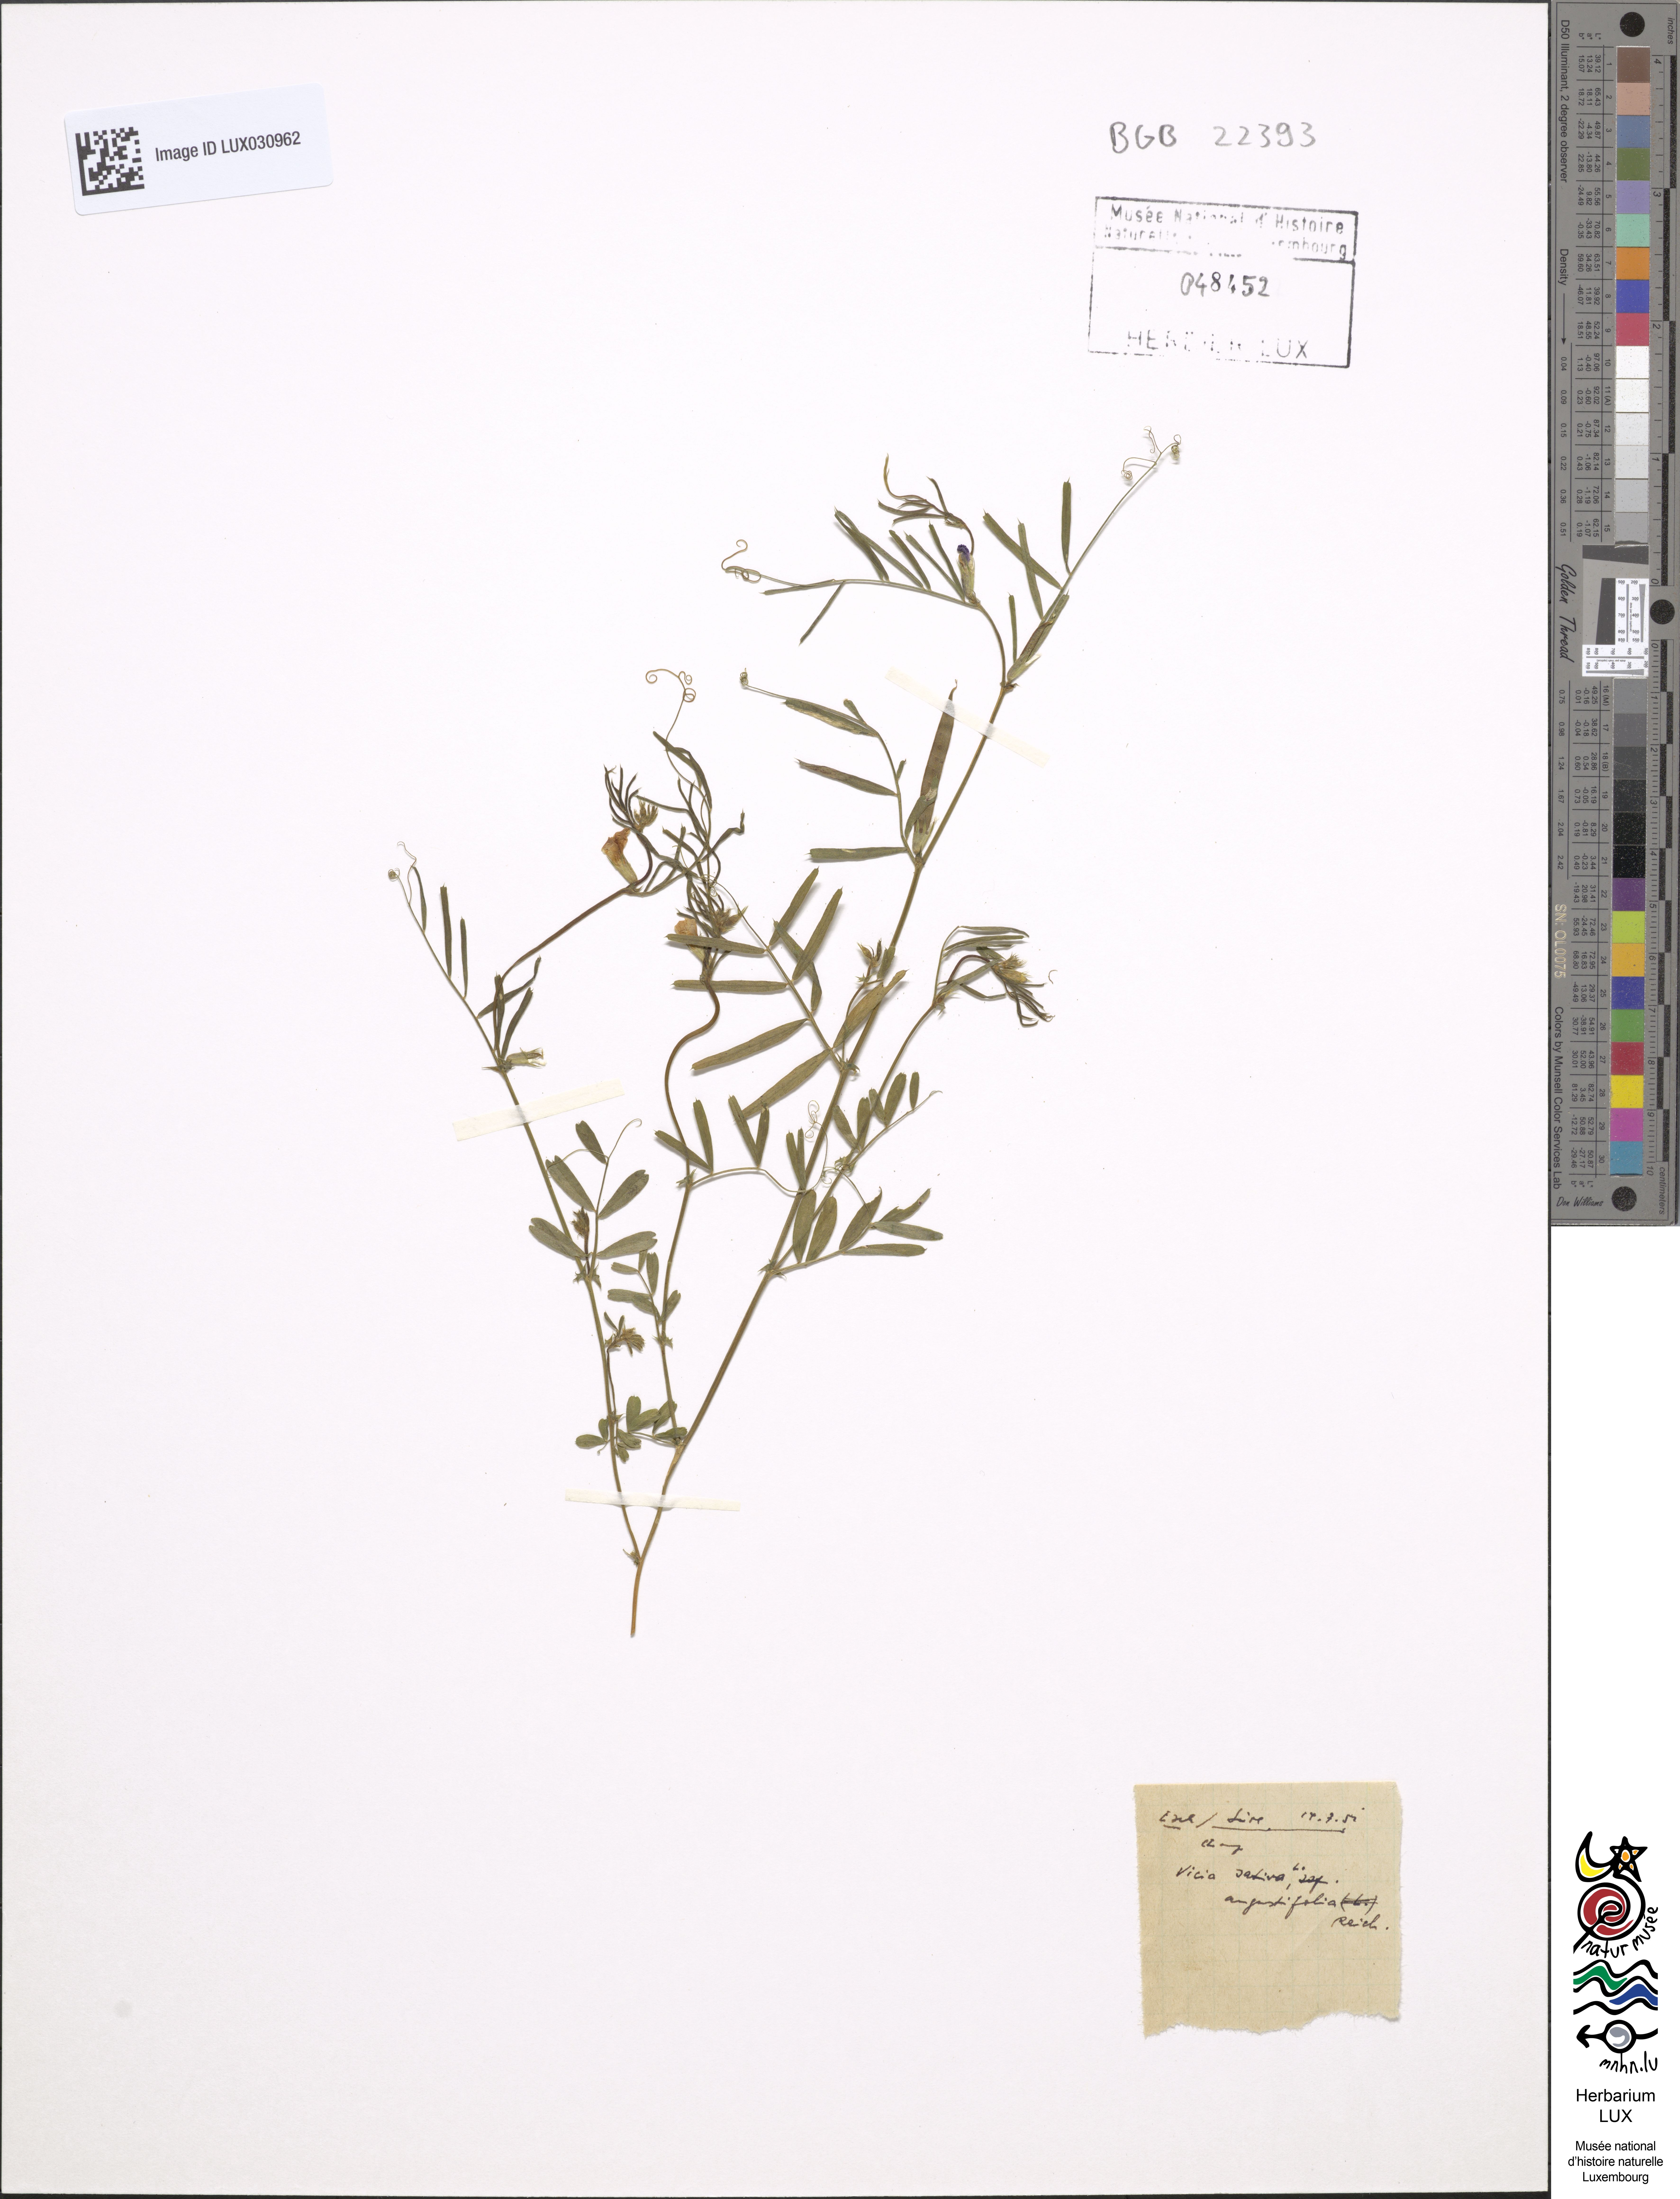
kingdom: Plantae
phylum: Tracheophyta
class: Magnoliopsida
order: Fabales
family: Fabaceae
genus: Vicia
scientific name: Vicia sativa
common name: Garden vetch
